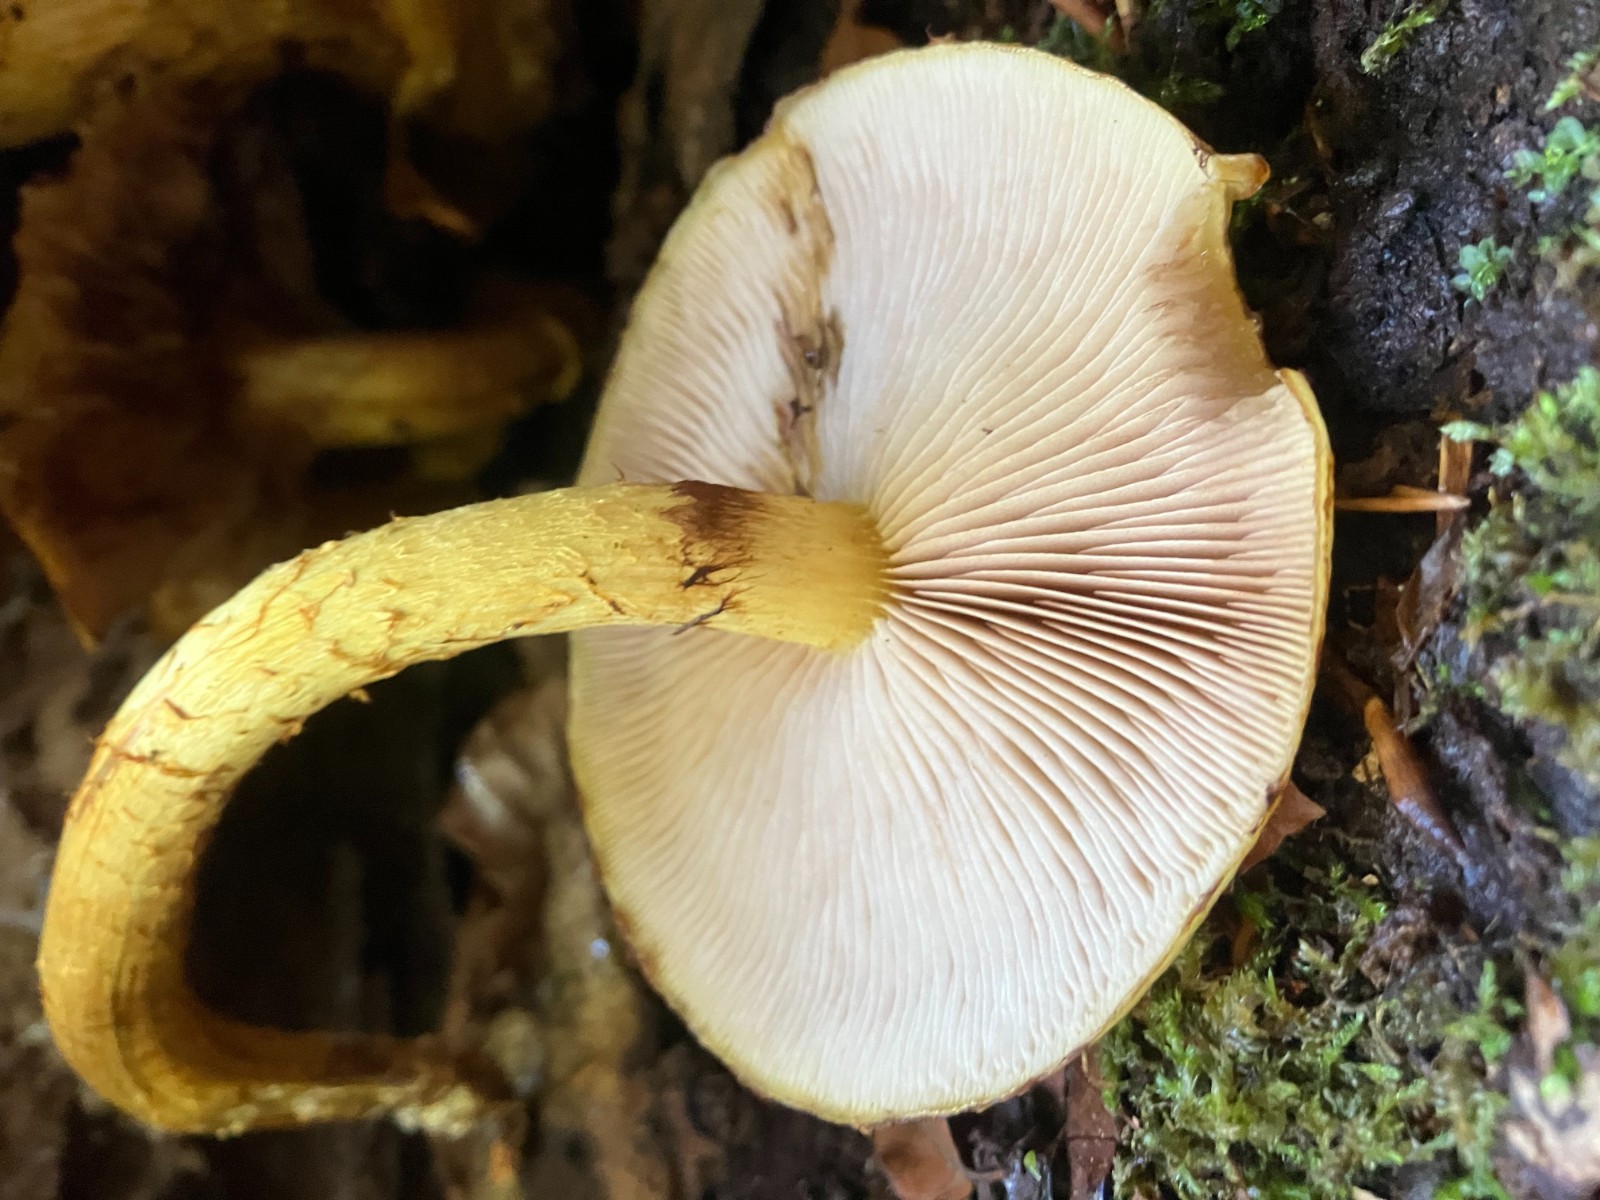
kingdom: Fungi
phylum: Basidiomycota
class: Agaricomycetes
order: Agaricales
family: Strophariaceae
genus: Pholiota
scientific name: Pholiota adiposa
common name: højtsiddende skælhat
